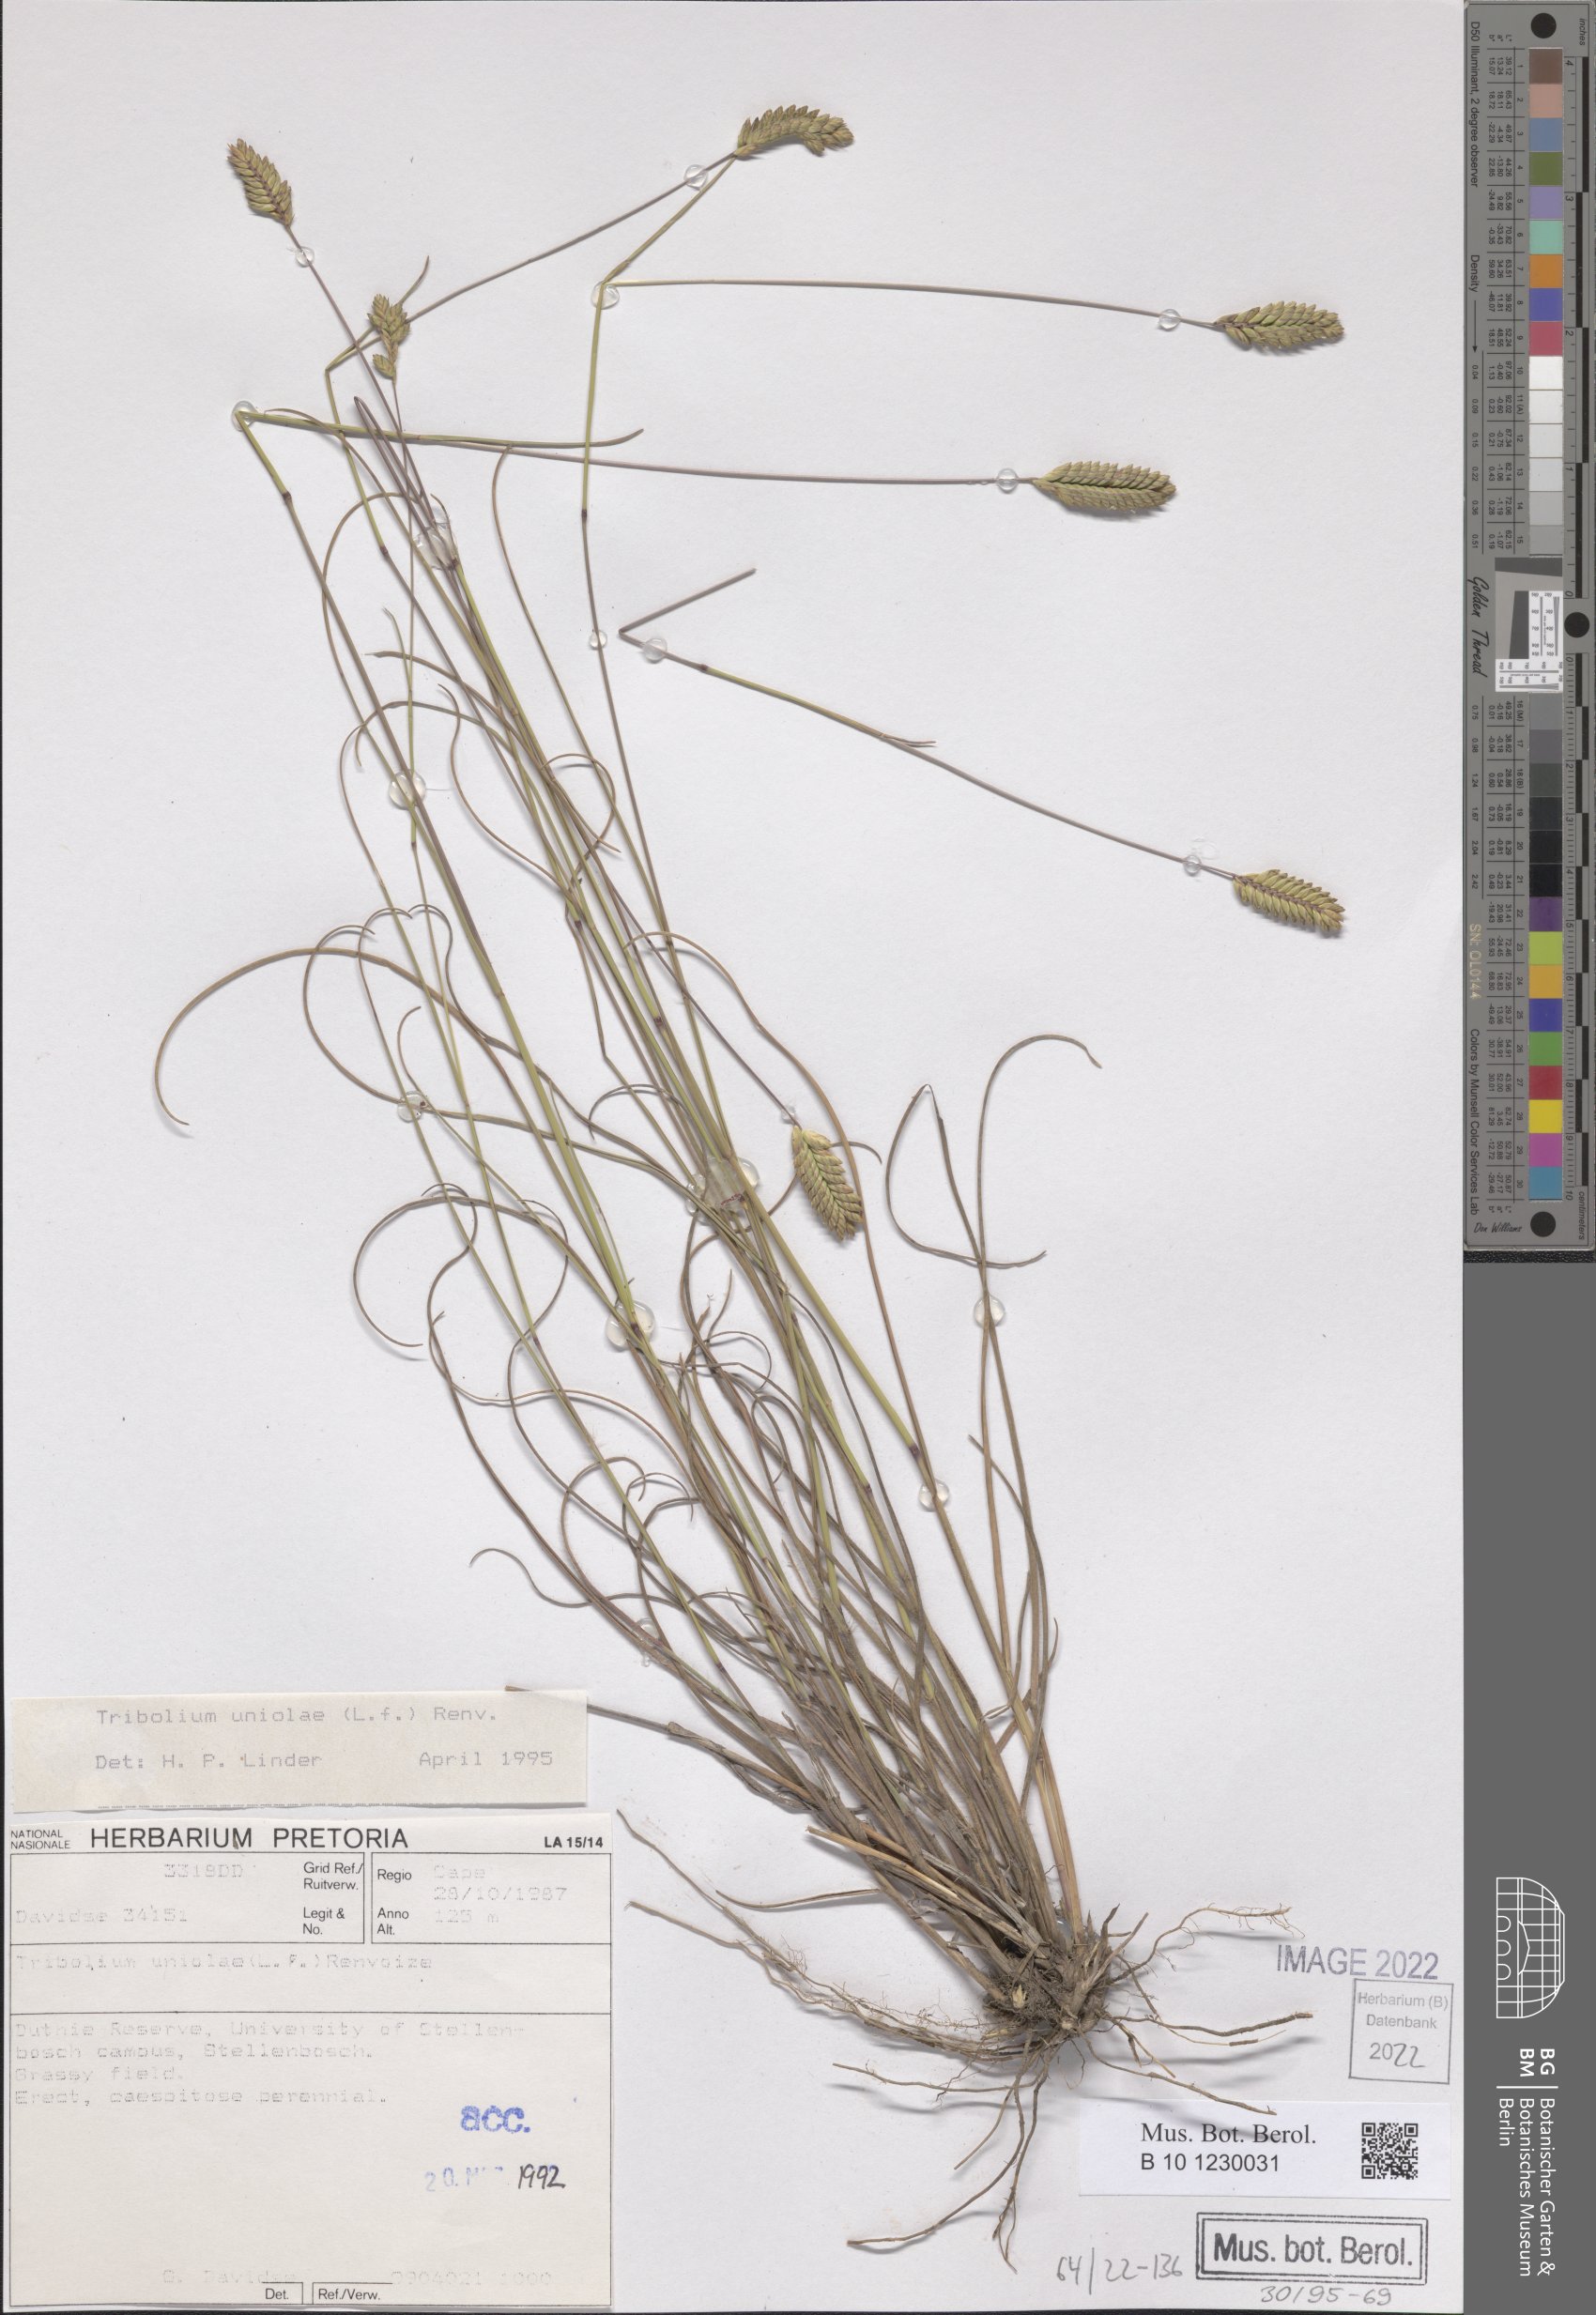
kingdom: Plantae
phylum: Tracheophyta
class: Liliopsida
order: Poales
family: Poaceae
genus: Tribolium
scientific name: Tribolium uniolae
